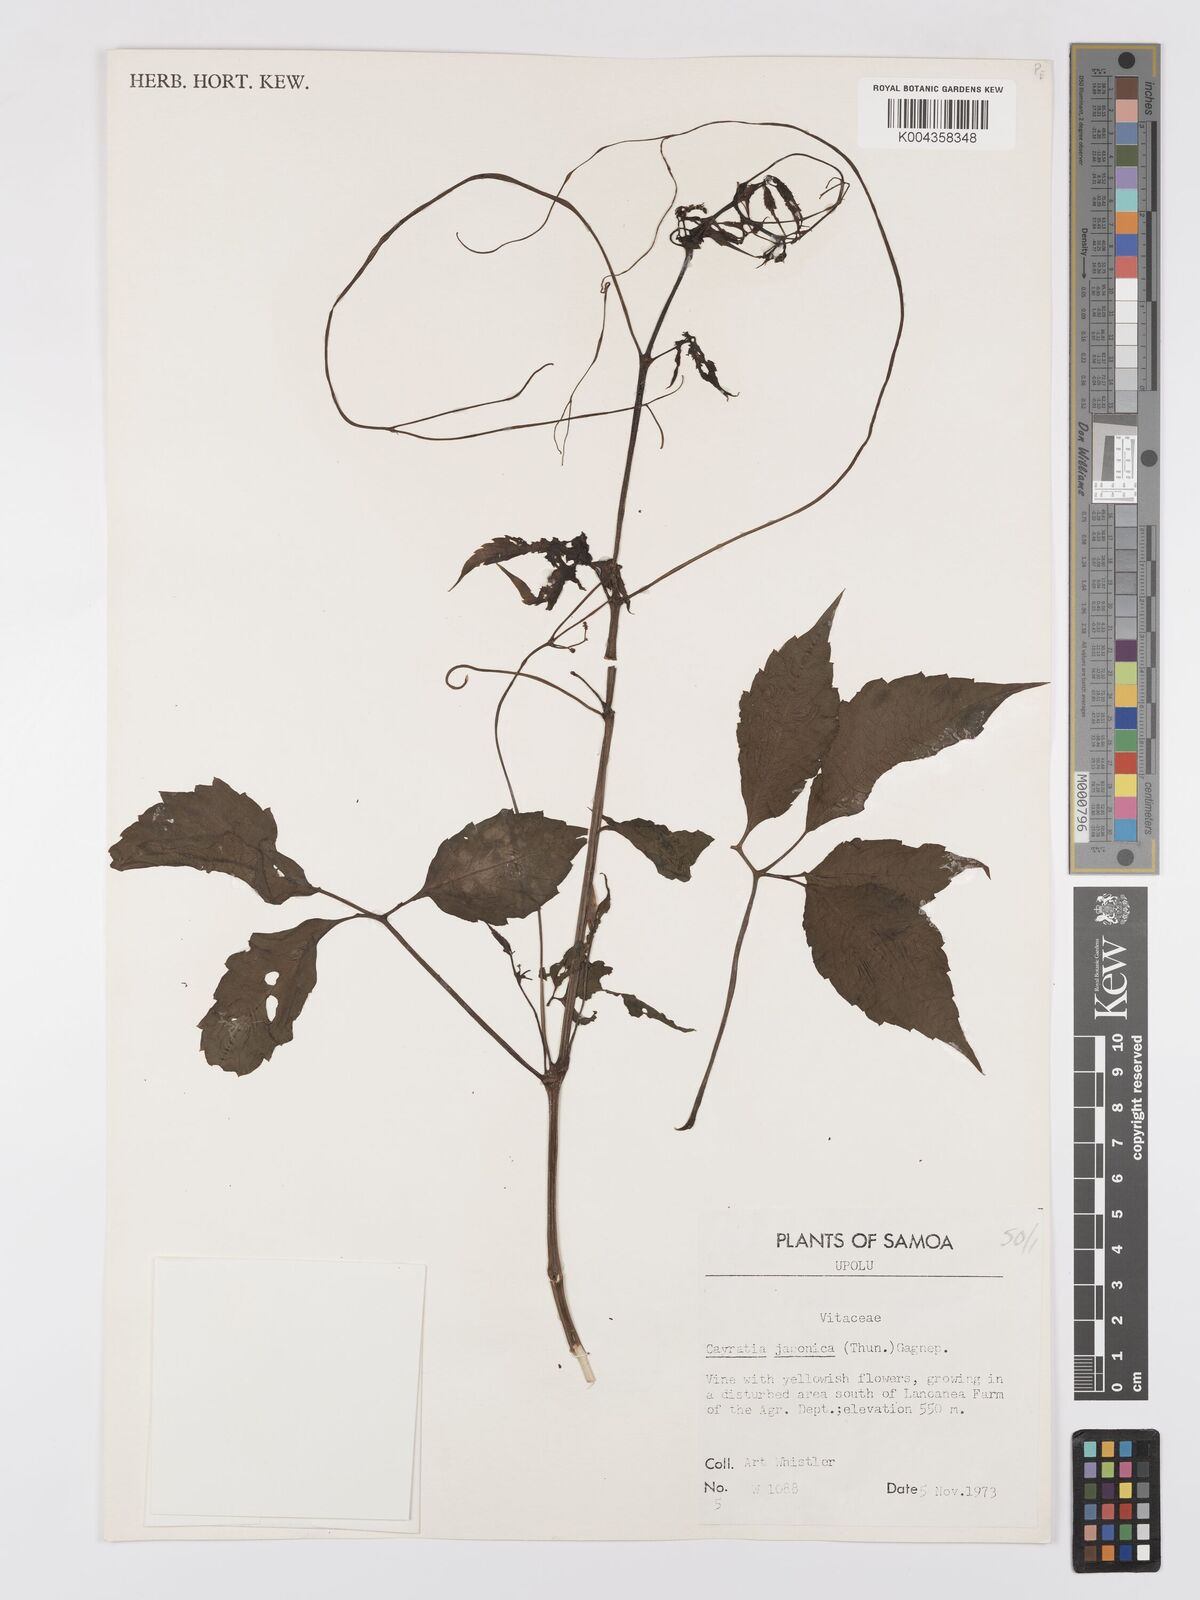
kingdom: Plantae
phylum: Tracheophyta
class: Magnoliopsida
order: Vitales
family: Vitaceae
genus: Causonis
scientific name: Causonis japonica
